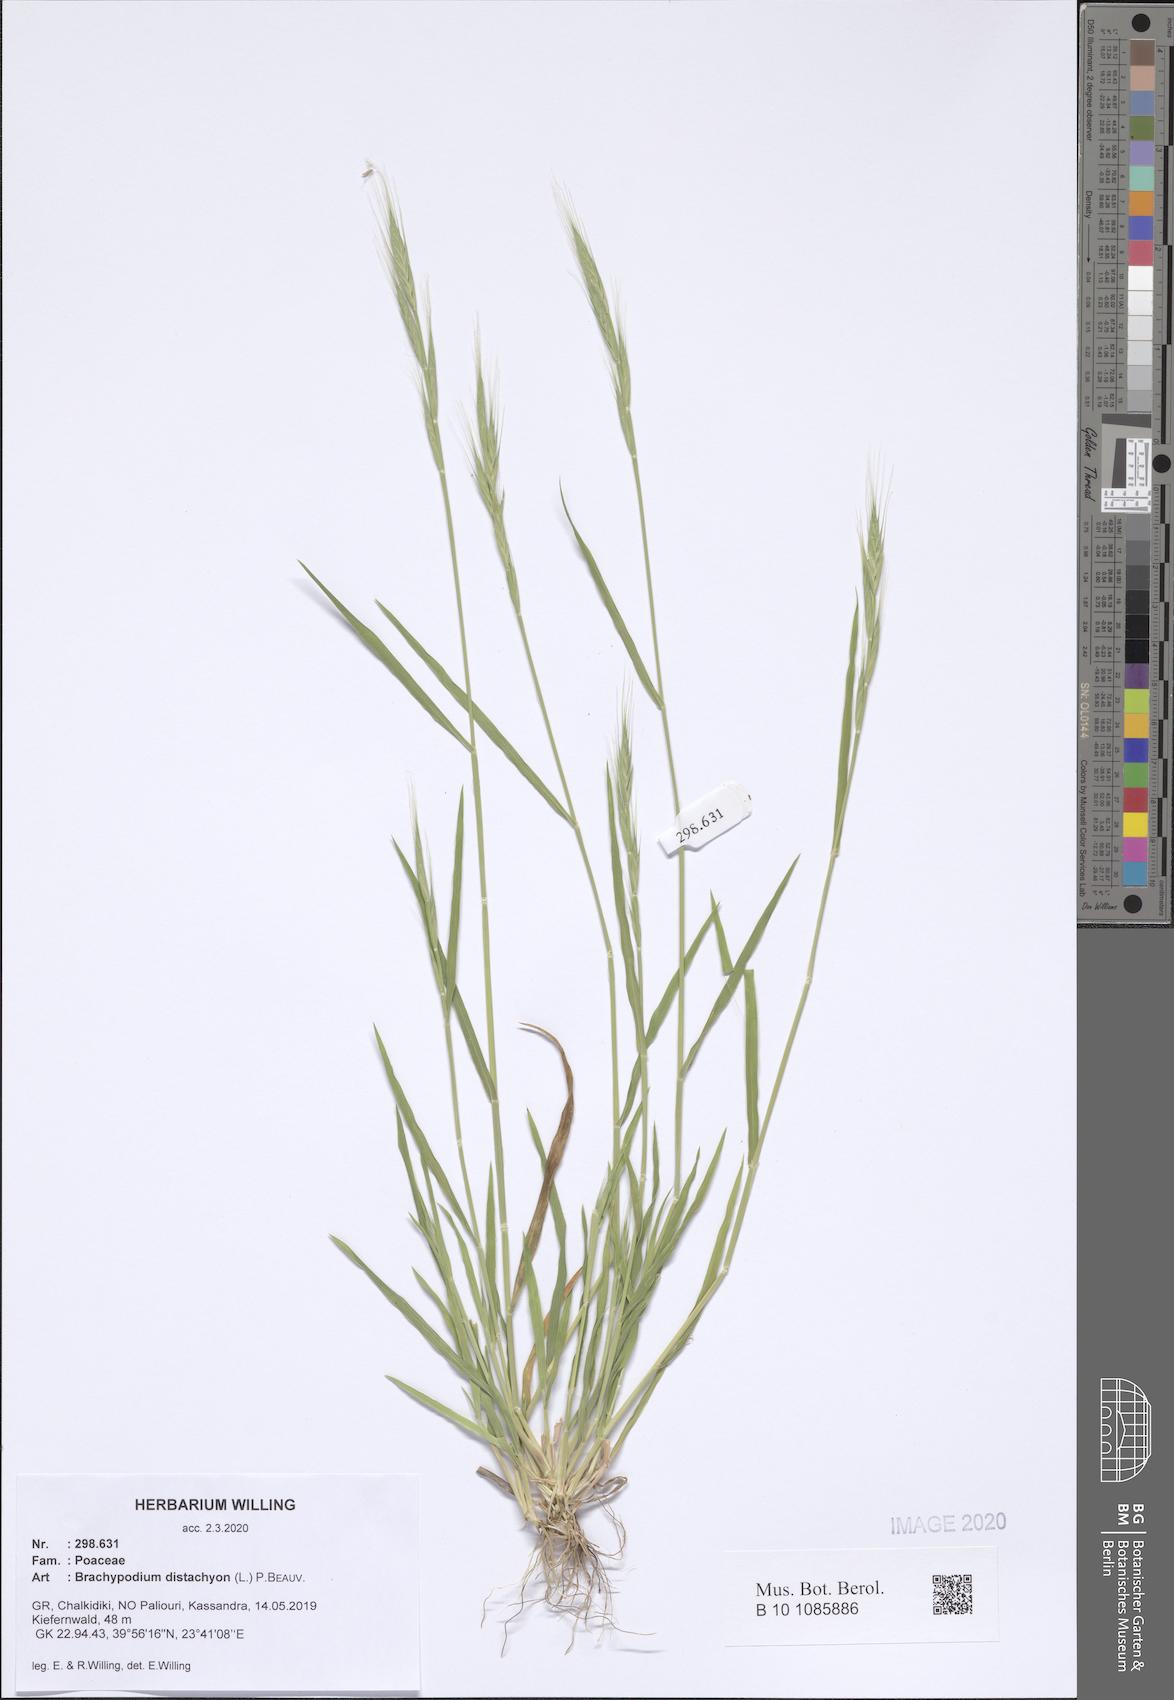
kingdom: Plantae
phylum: Tracheophyta
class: Liliopsida
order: Poales
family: Poaceae
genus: Brachypodium
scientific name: Brachypodium distachyon
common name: Stiff brome
